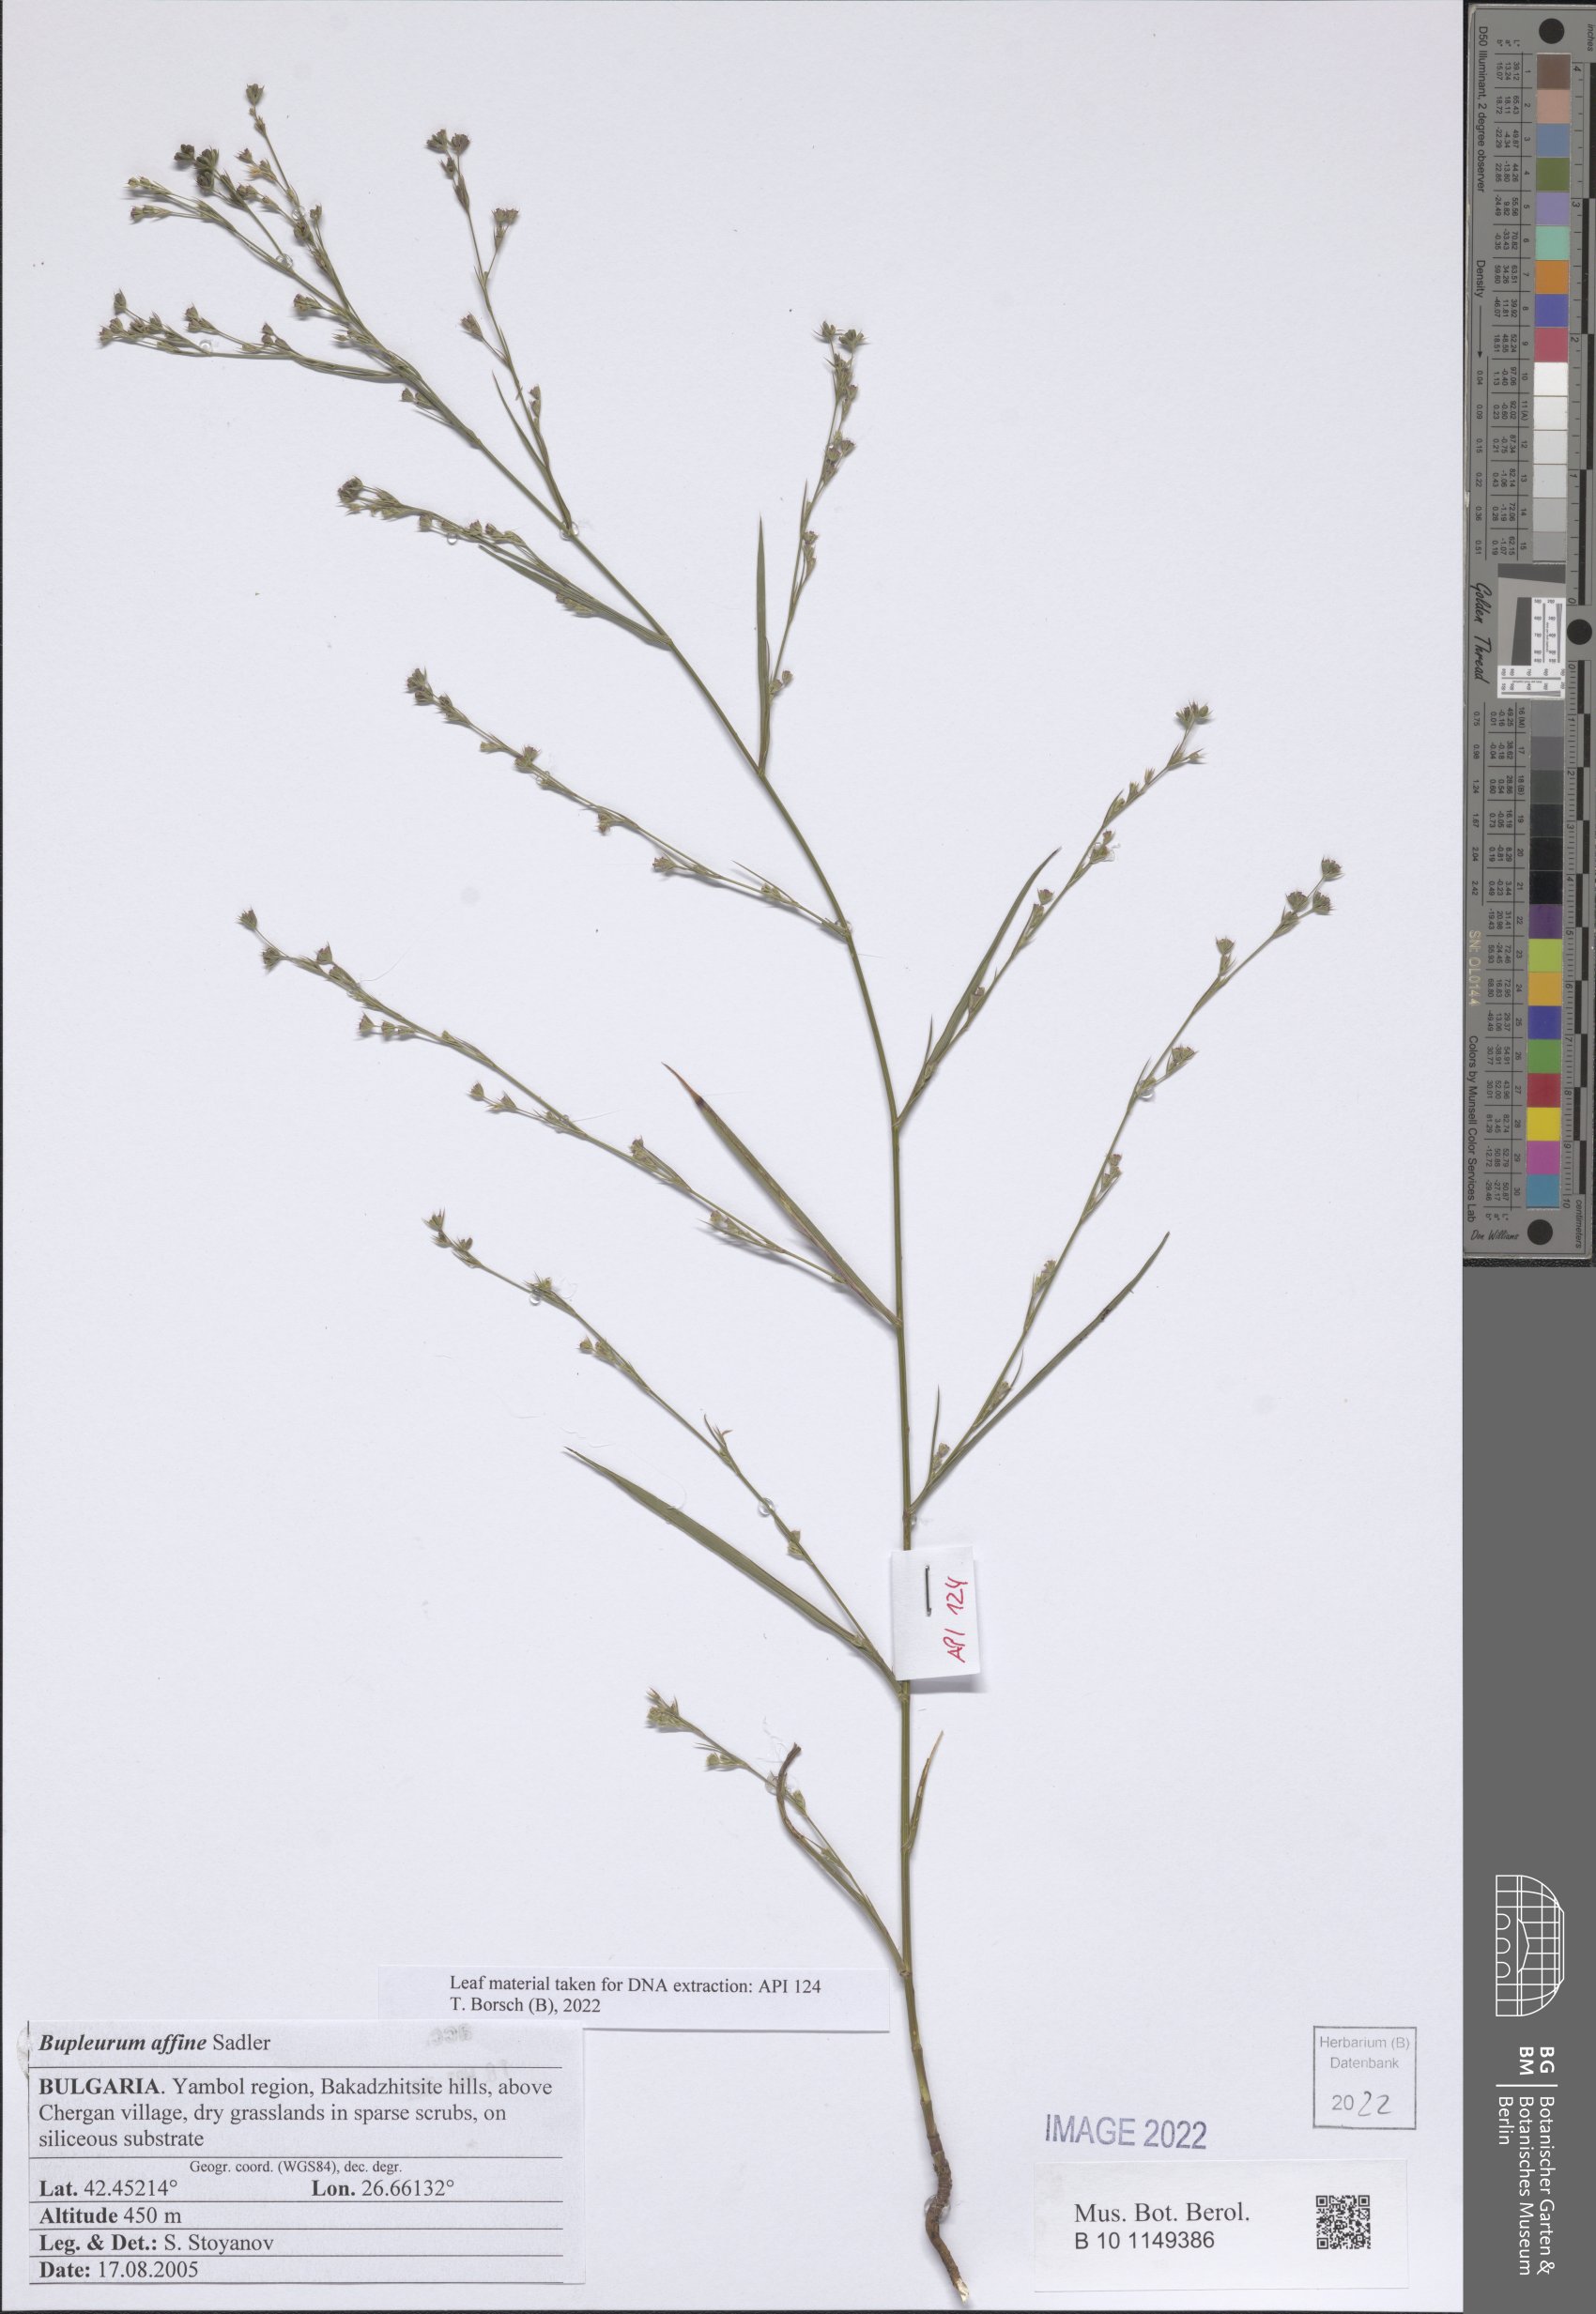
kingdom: Plantae
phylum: Tracheophyta
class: Magnoliopsida
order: Apiales
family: Apiaceae
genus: Bupleurum
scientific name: Bupleurum affine
